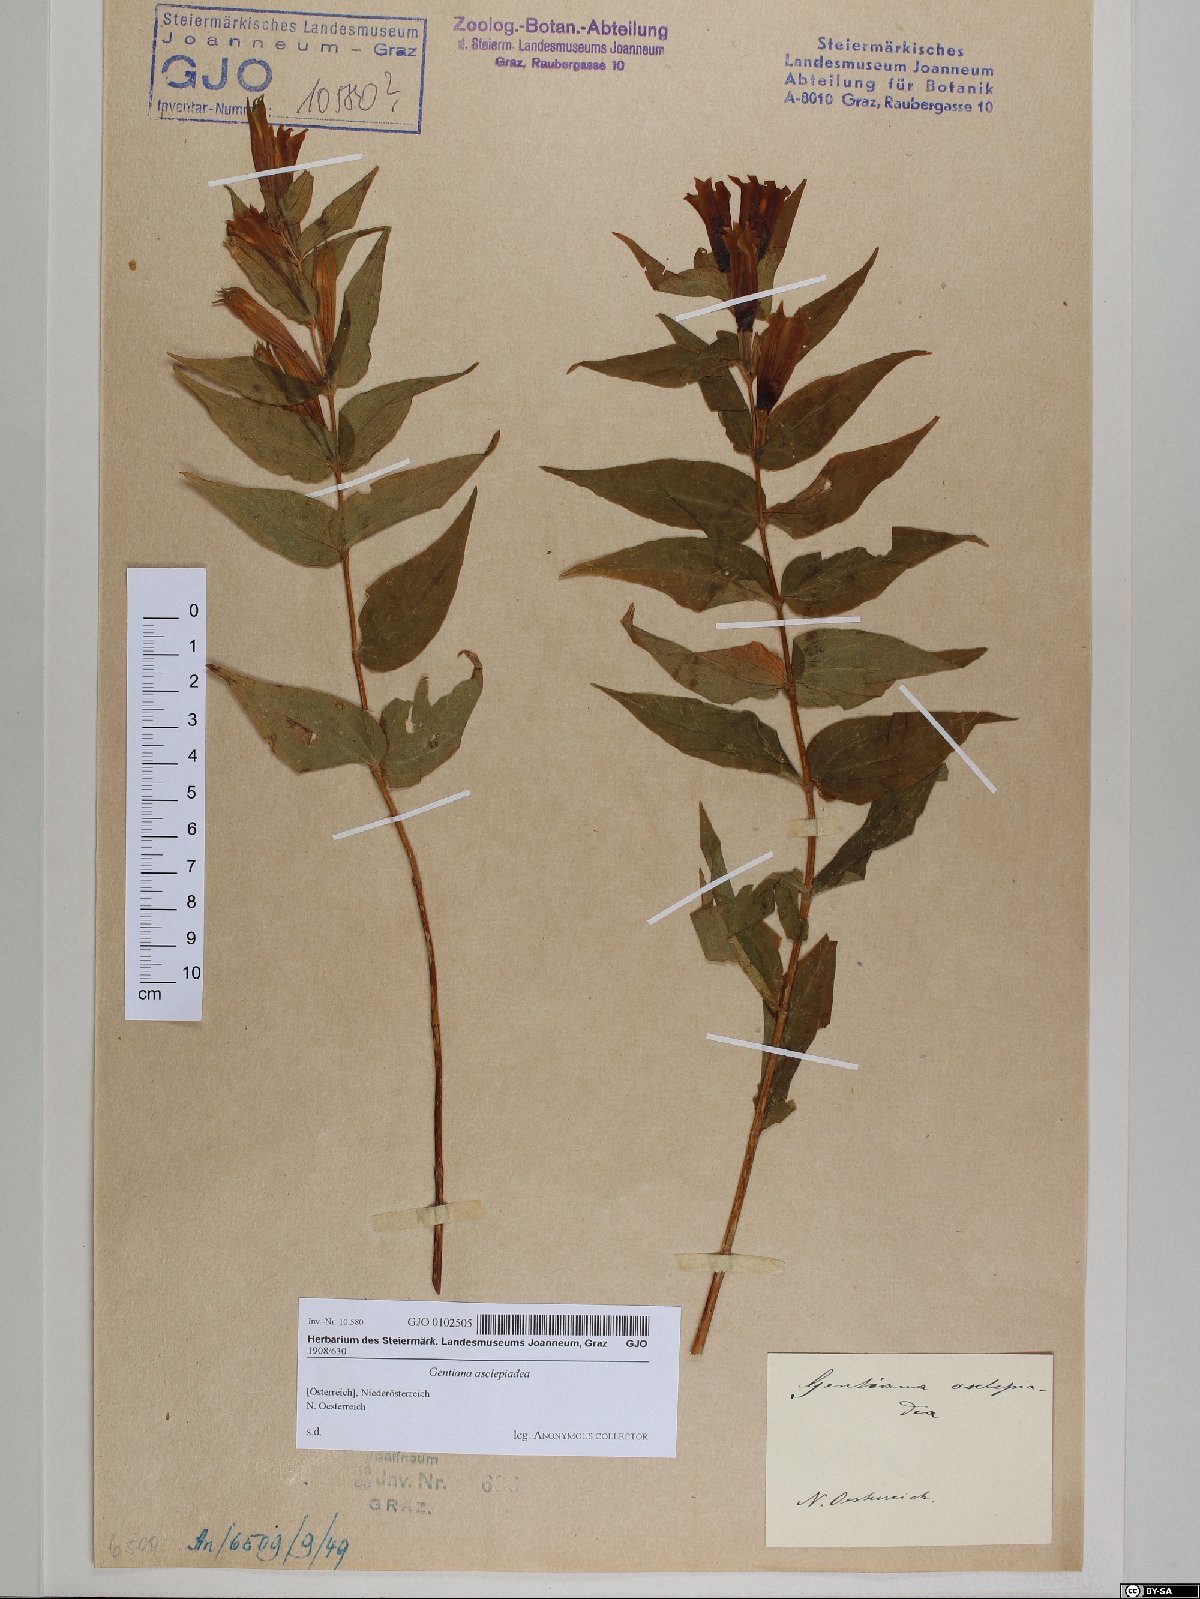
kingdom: Plantae
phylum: Tracheophyta
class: Magnoliopsida
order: Gentianales
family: Gentianaceae
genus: Gentiana
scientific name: Gentiana asclepiadea
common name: Willow gentian
